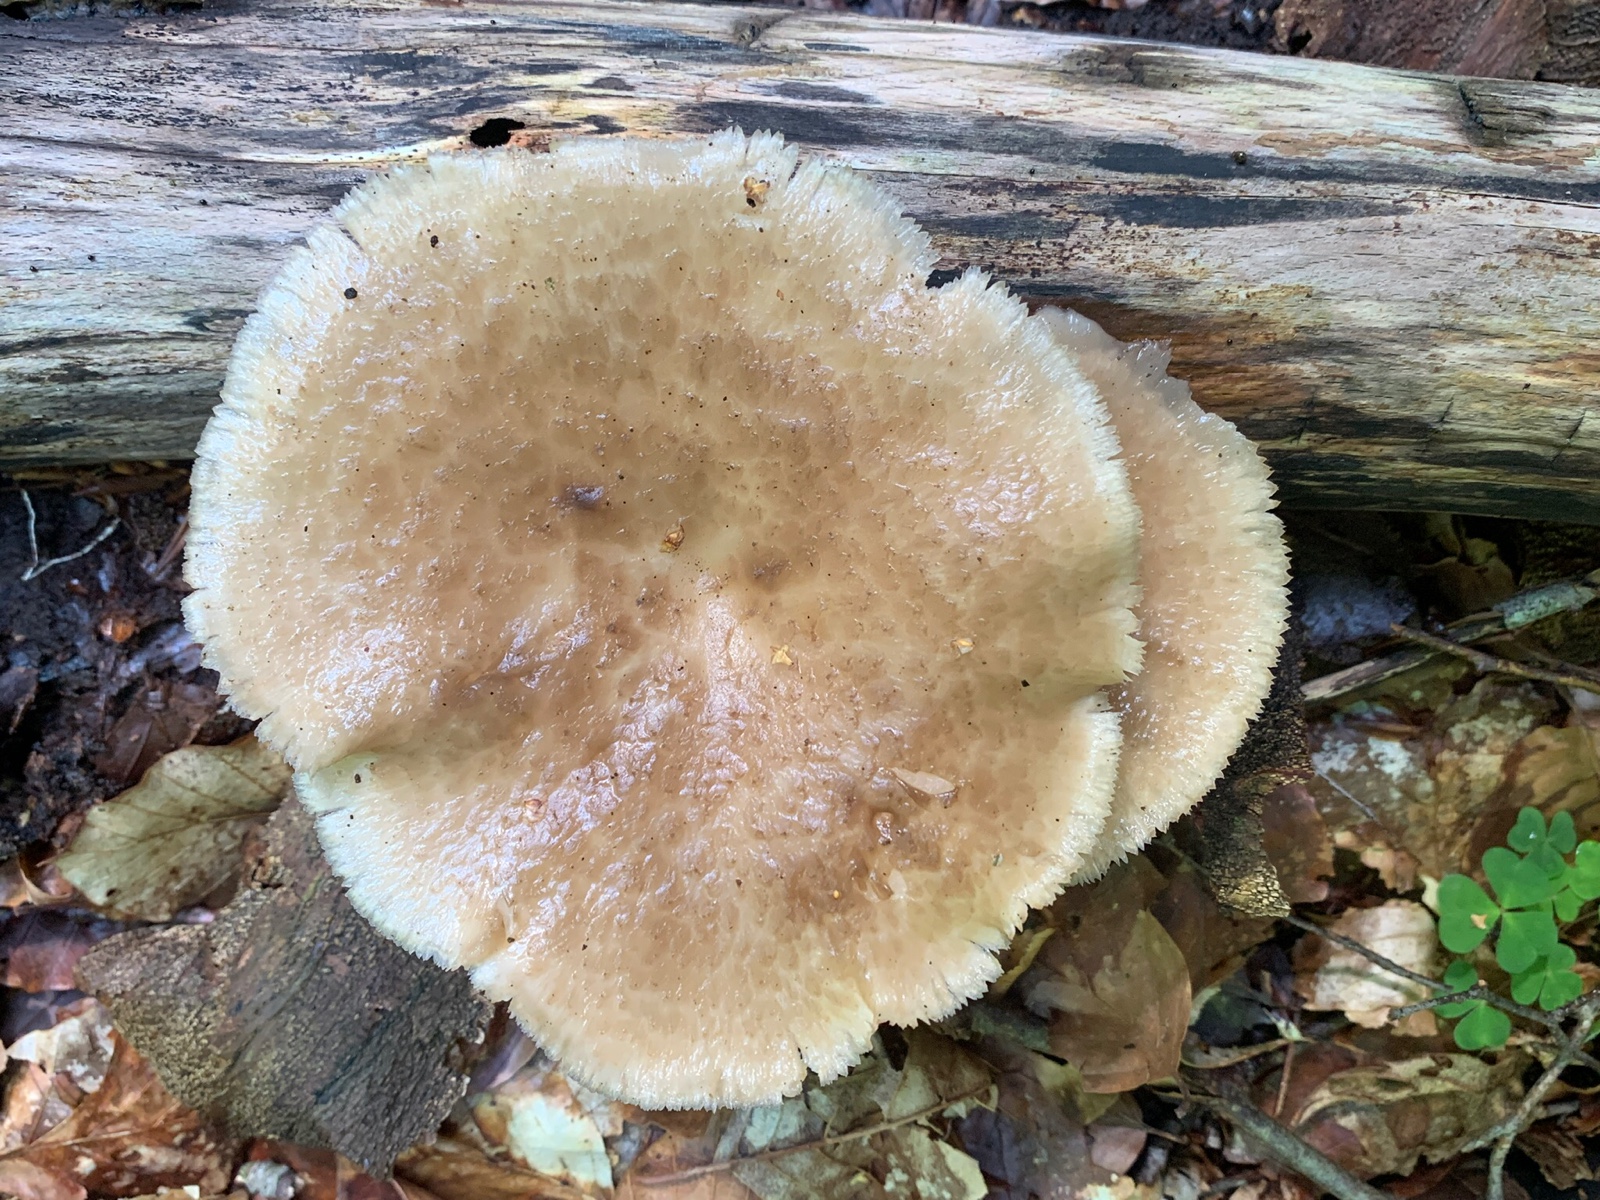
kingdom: Fungi
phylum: Basidiomycota
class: Agaricomycetes
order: Polyporales
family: Polyporaceae
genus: Polyporus
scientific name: Polyporus tuberaster
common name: knoldet stilkporesvamp
